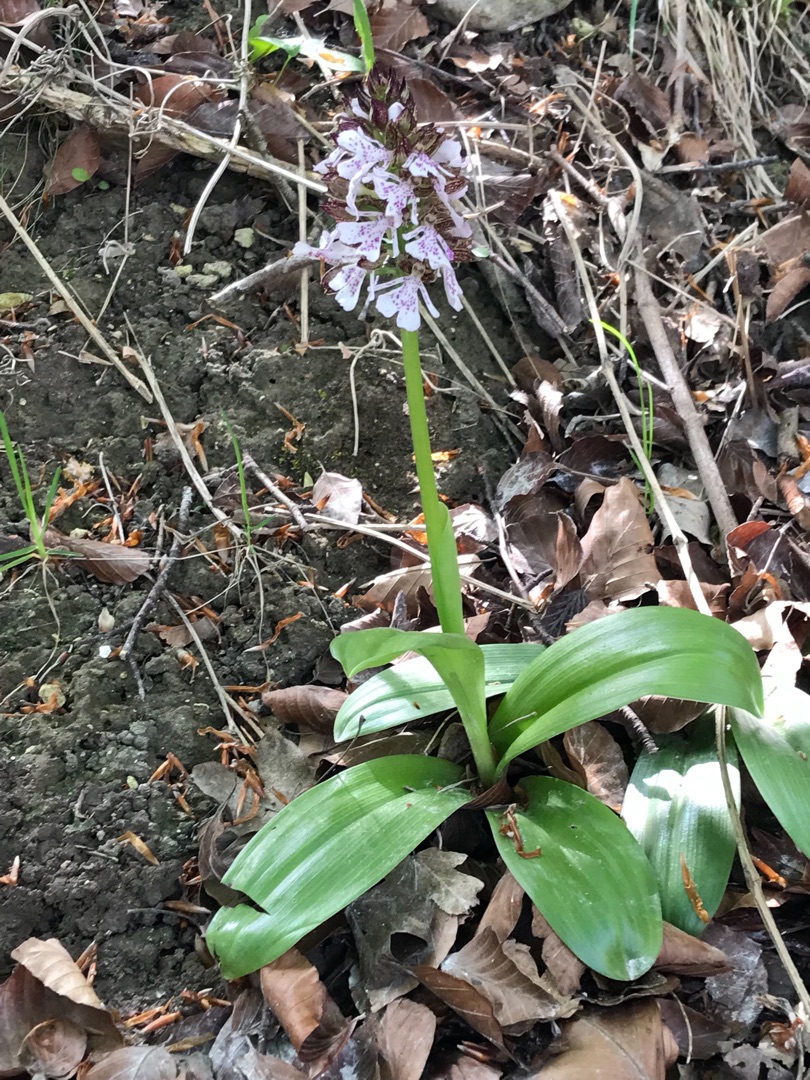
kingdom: Plantae
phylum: Tracheophyta
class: Liliopsida
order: Asparagales
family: Orchidaceae
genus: Orchis
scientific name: Orchis purpurea
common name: Stor gøgeurt
